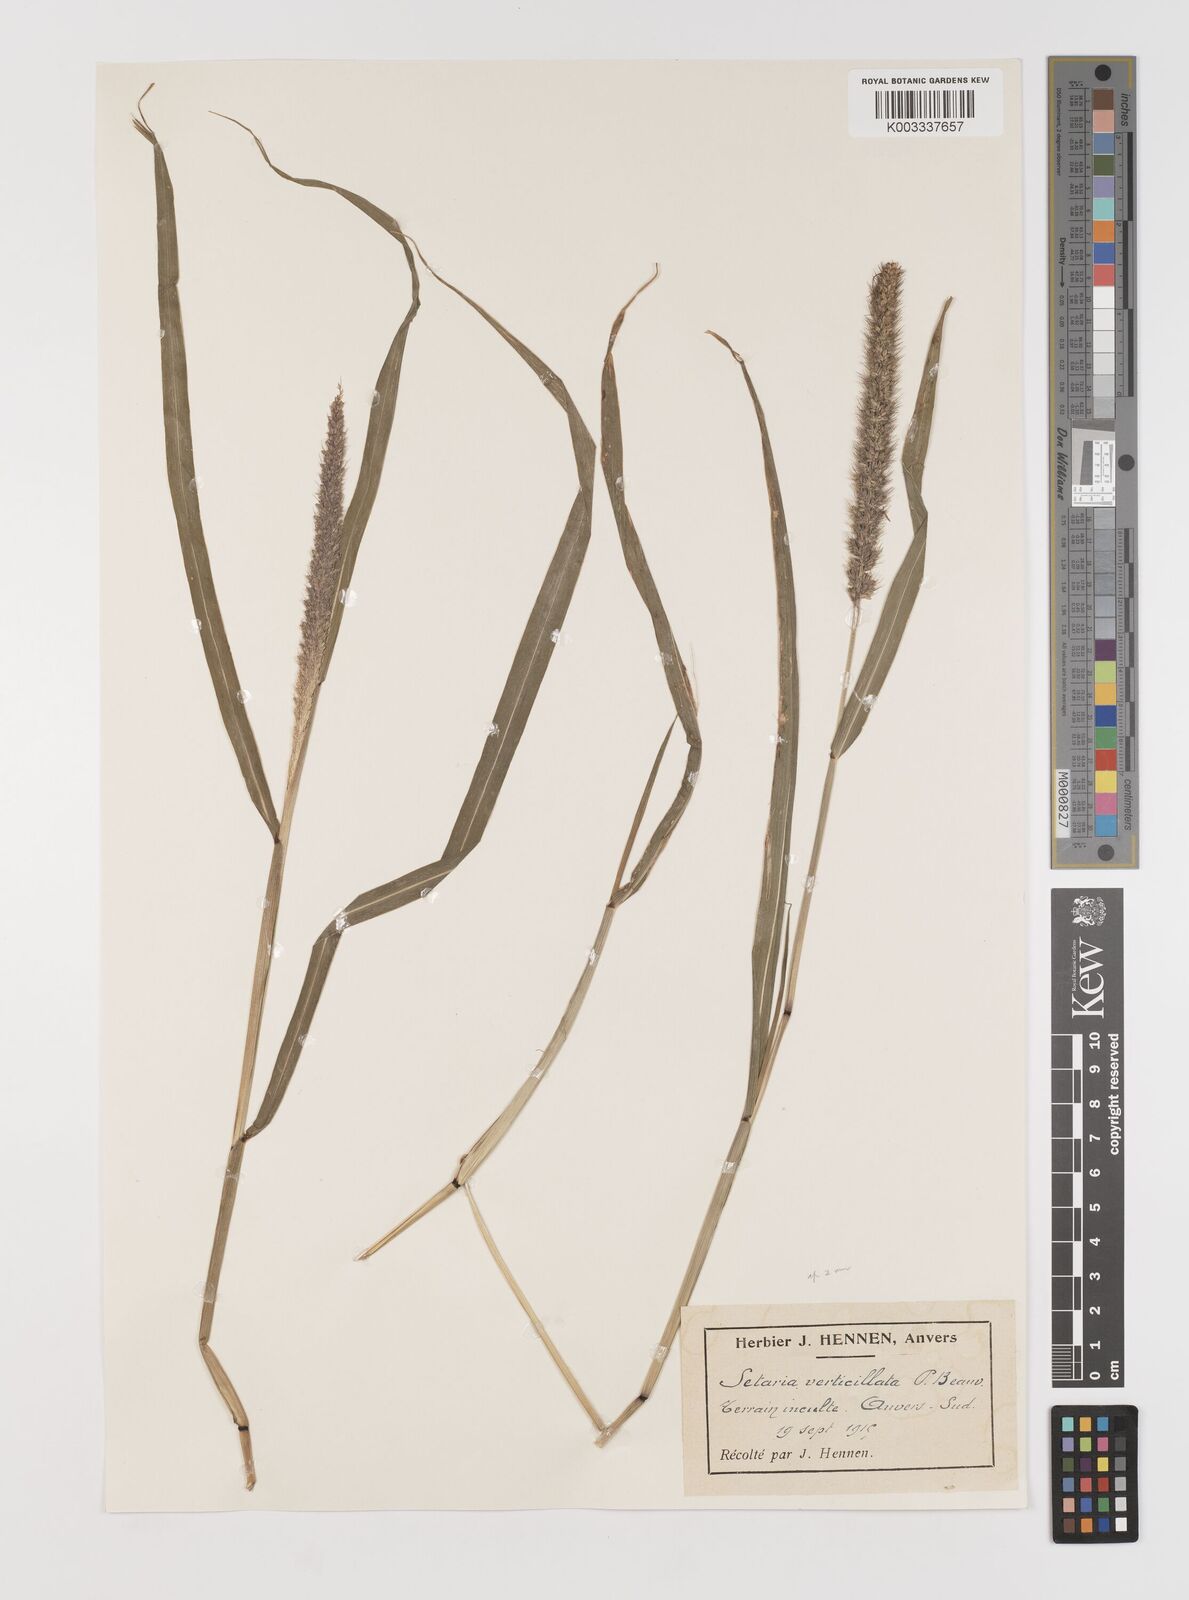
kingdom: Plantae
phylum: Tracheophyta
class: Liliopsida
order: Poales
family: Poaceae
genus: Setaria
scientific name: Setaria verticillata
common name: Hooked bristlegrass
